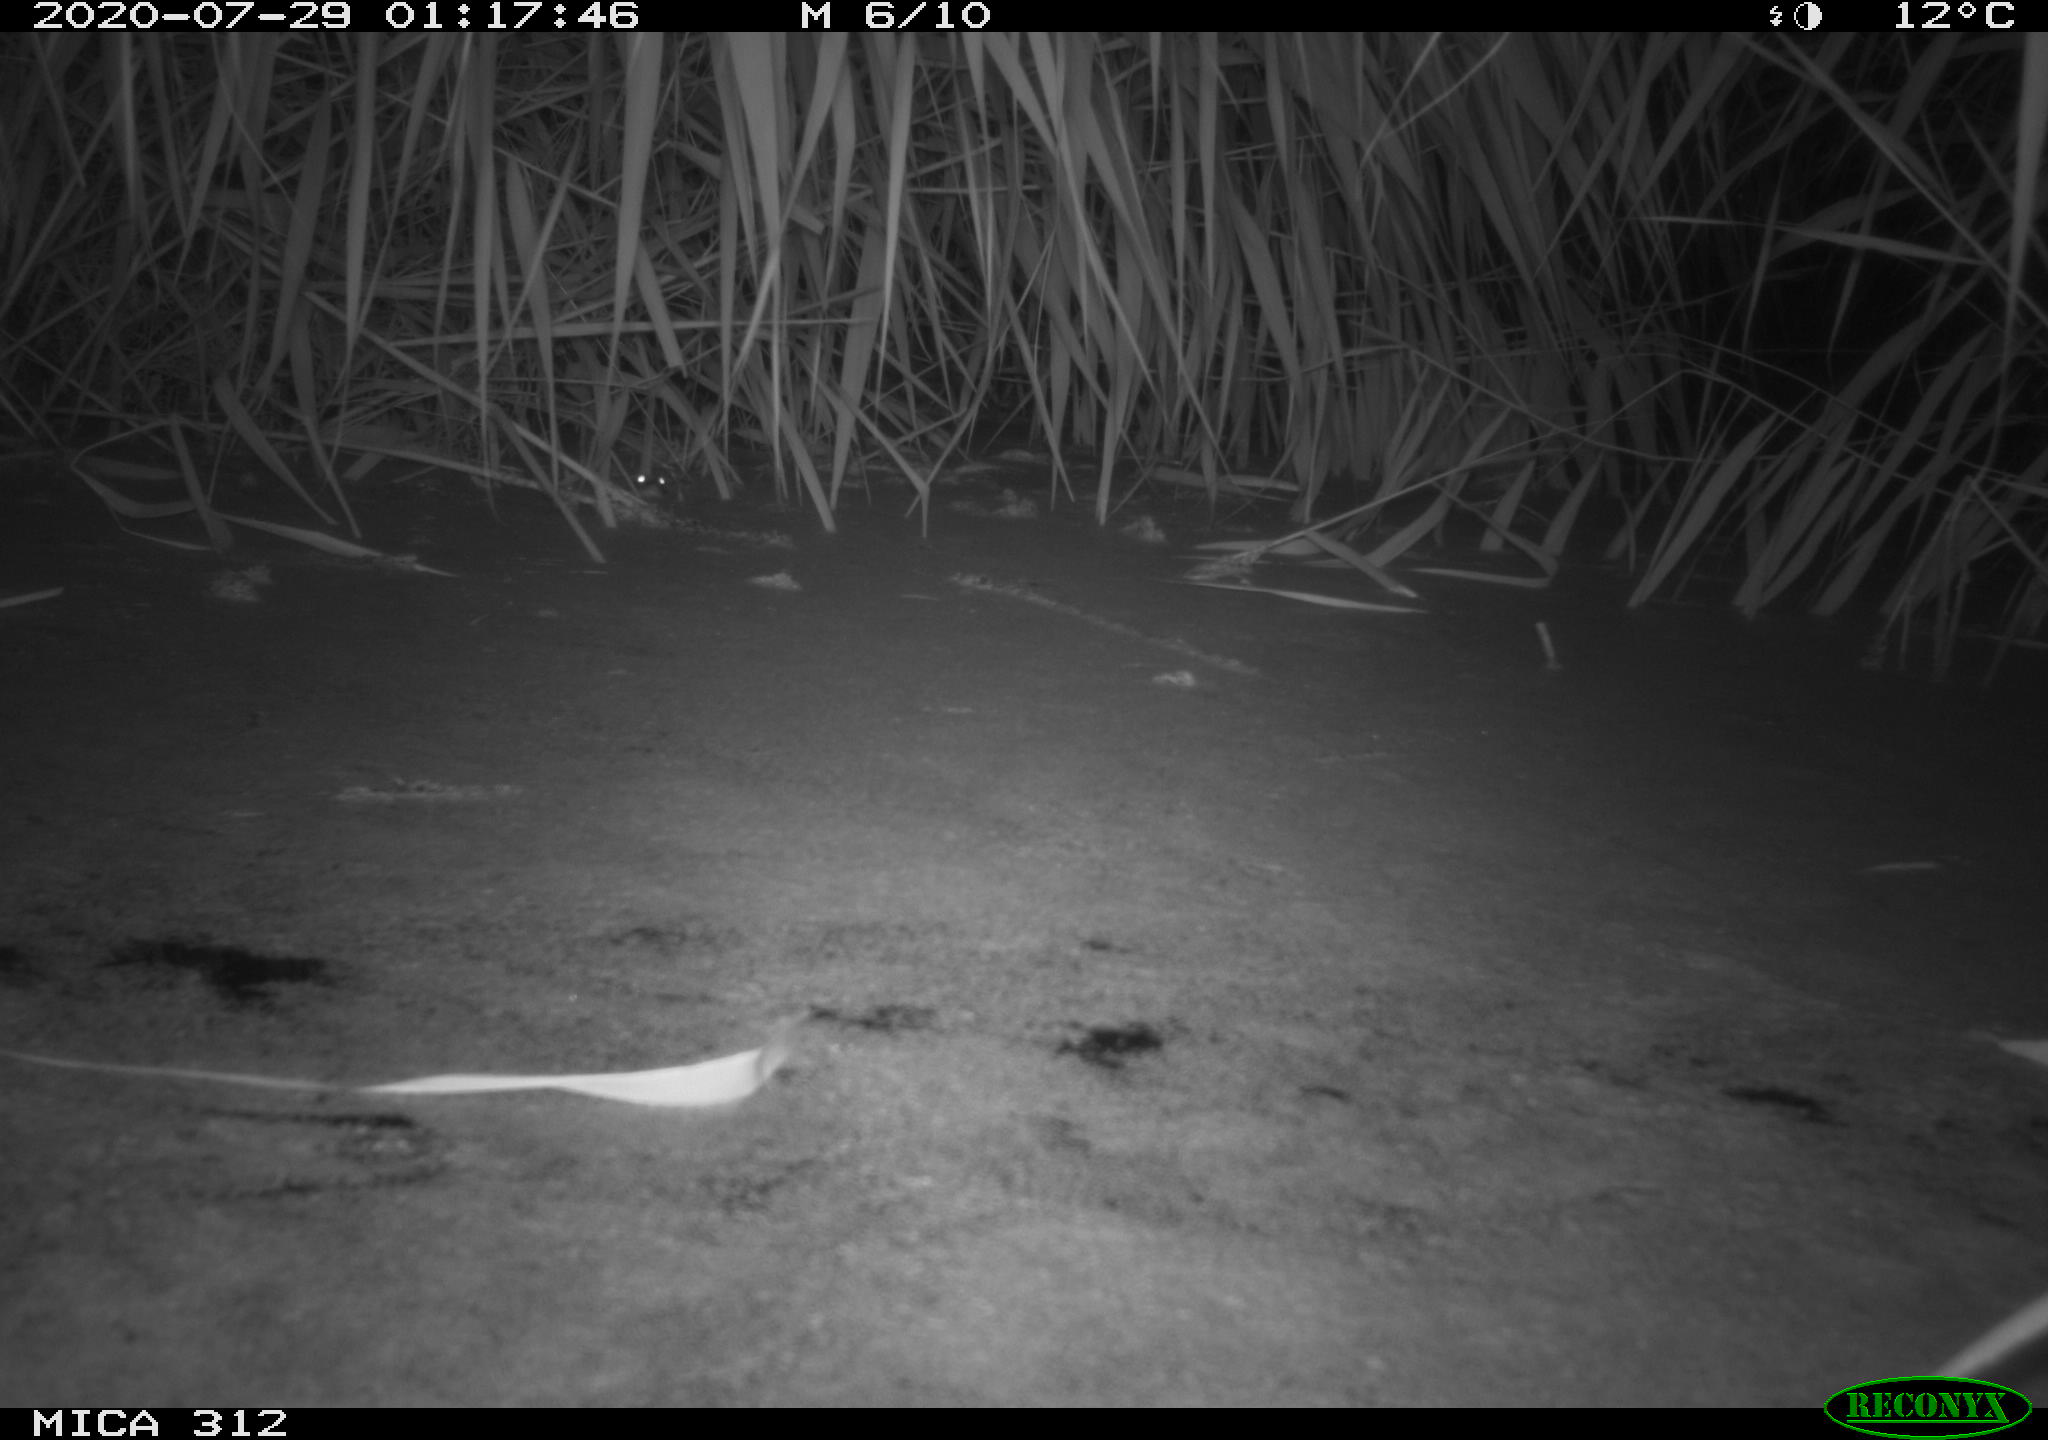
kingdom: Animalia
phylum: Chordata
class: Mammalia
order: Rodentia
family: Muridae
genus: Rattus
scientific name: Rattus norvegicus
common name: Brown rat
